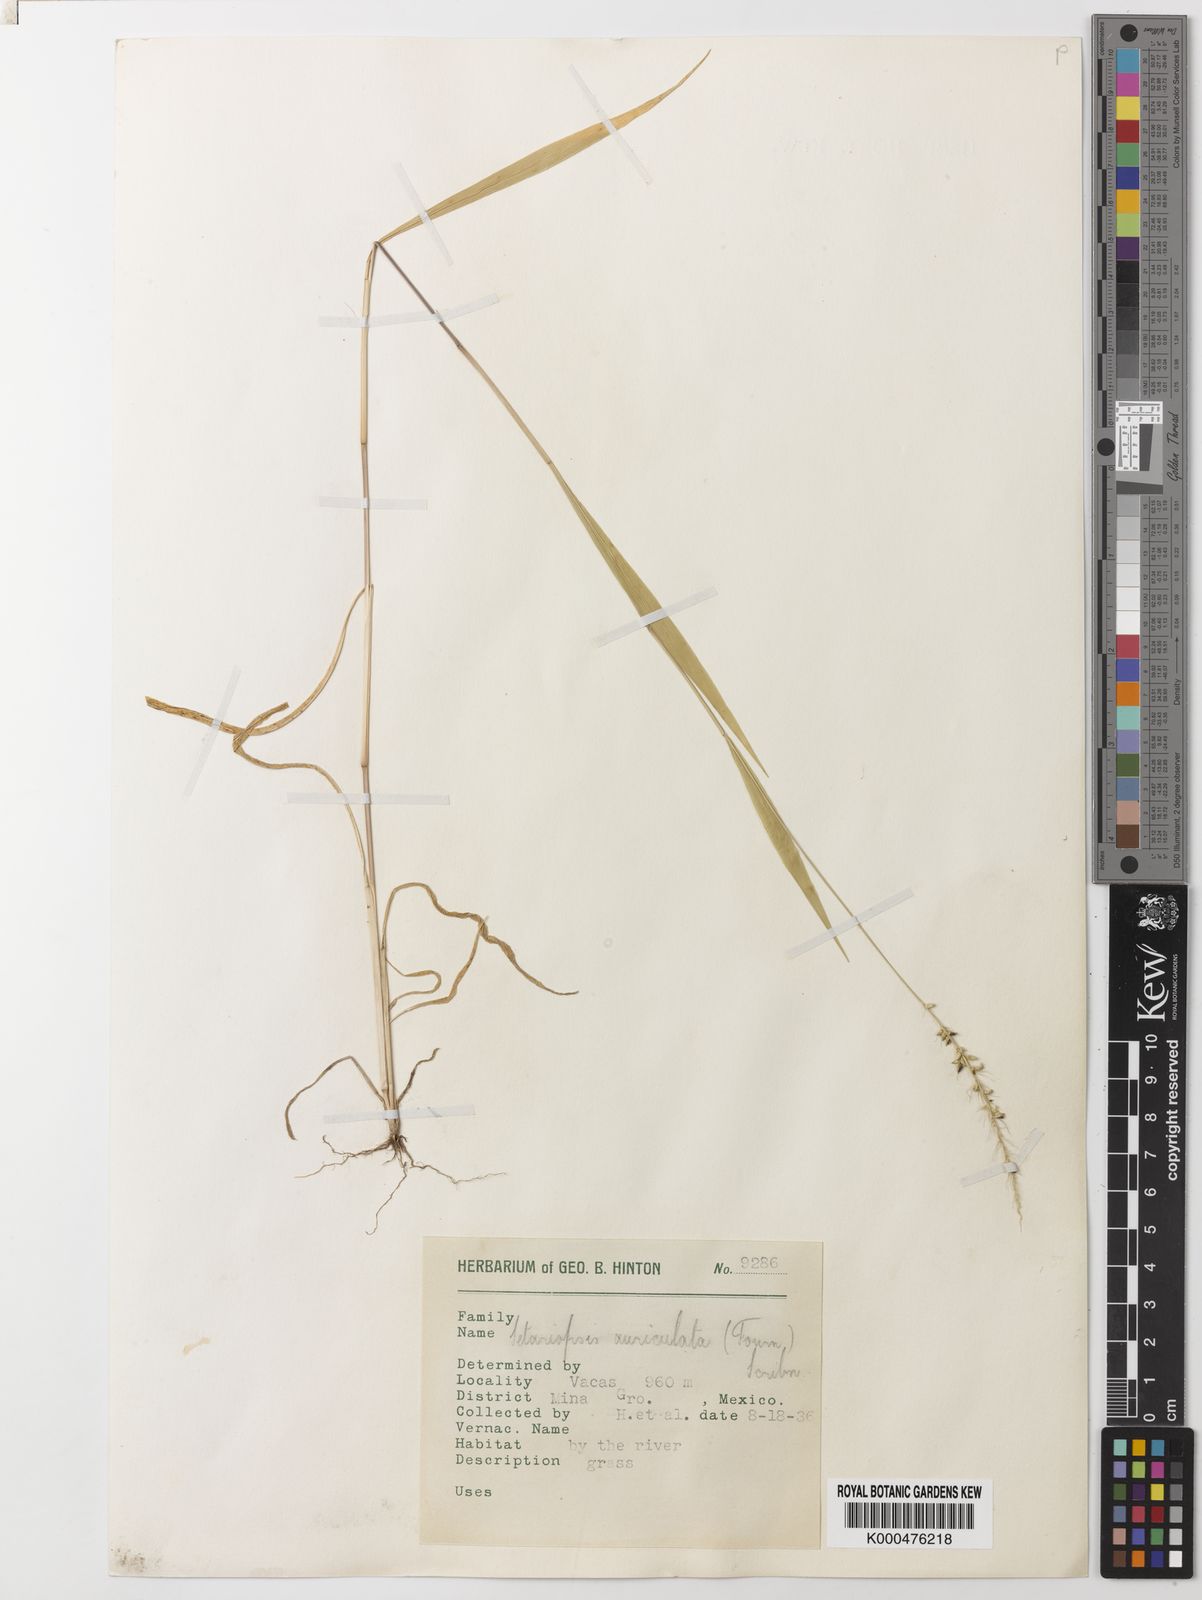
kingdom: Plantae
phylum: Tracheophyta
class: Liliopsida
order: Poales
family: Poaceae
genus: Setariopsis
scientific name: Setariopsis auriculata
